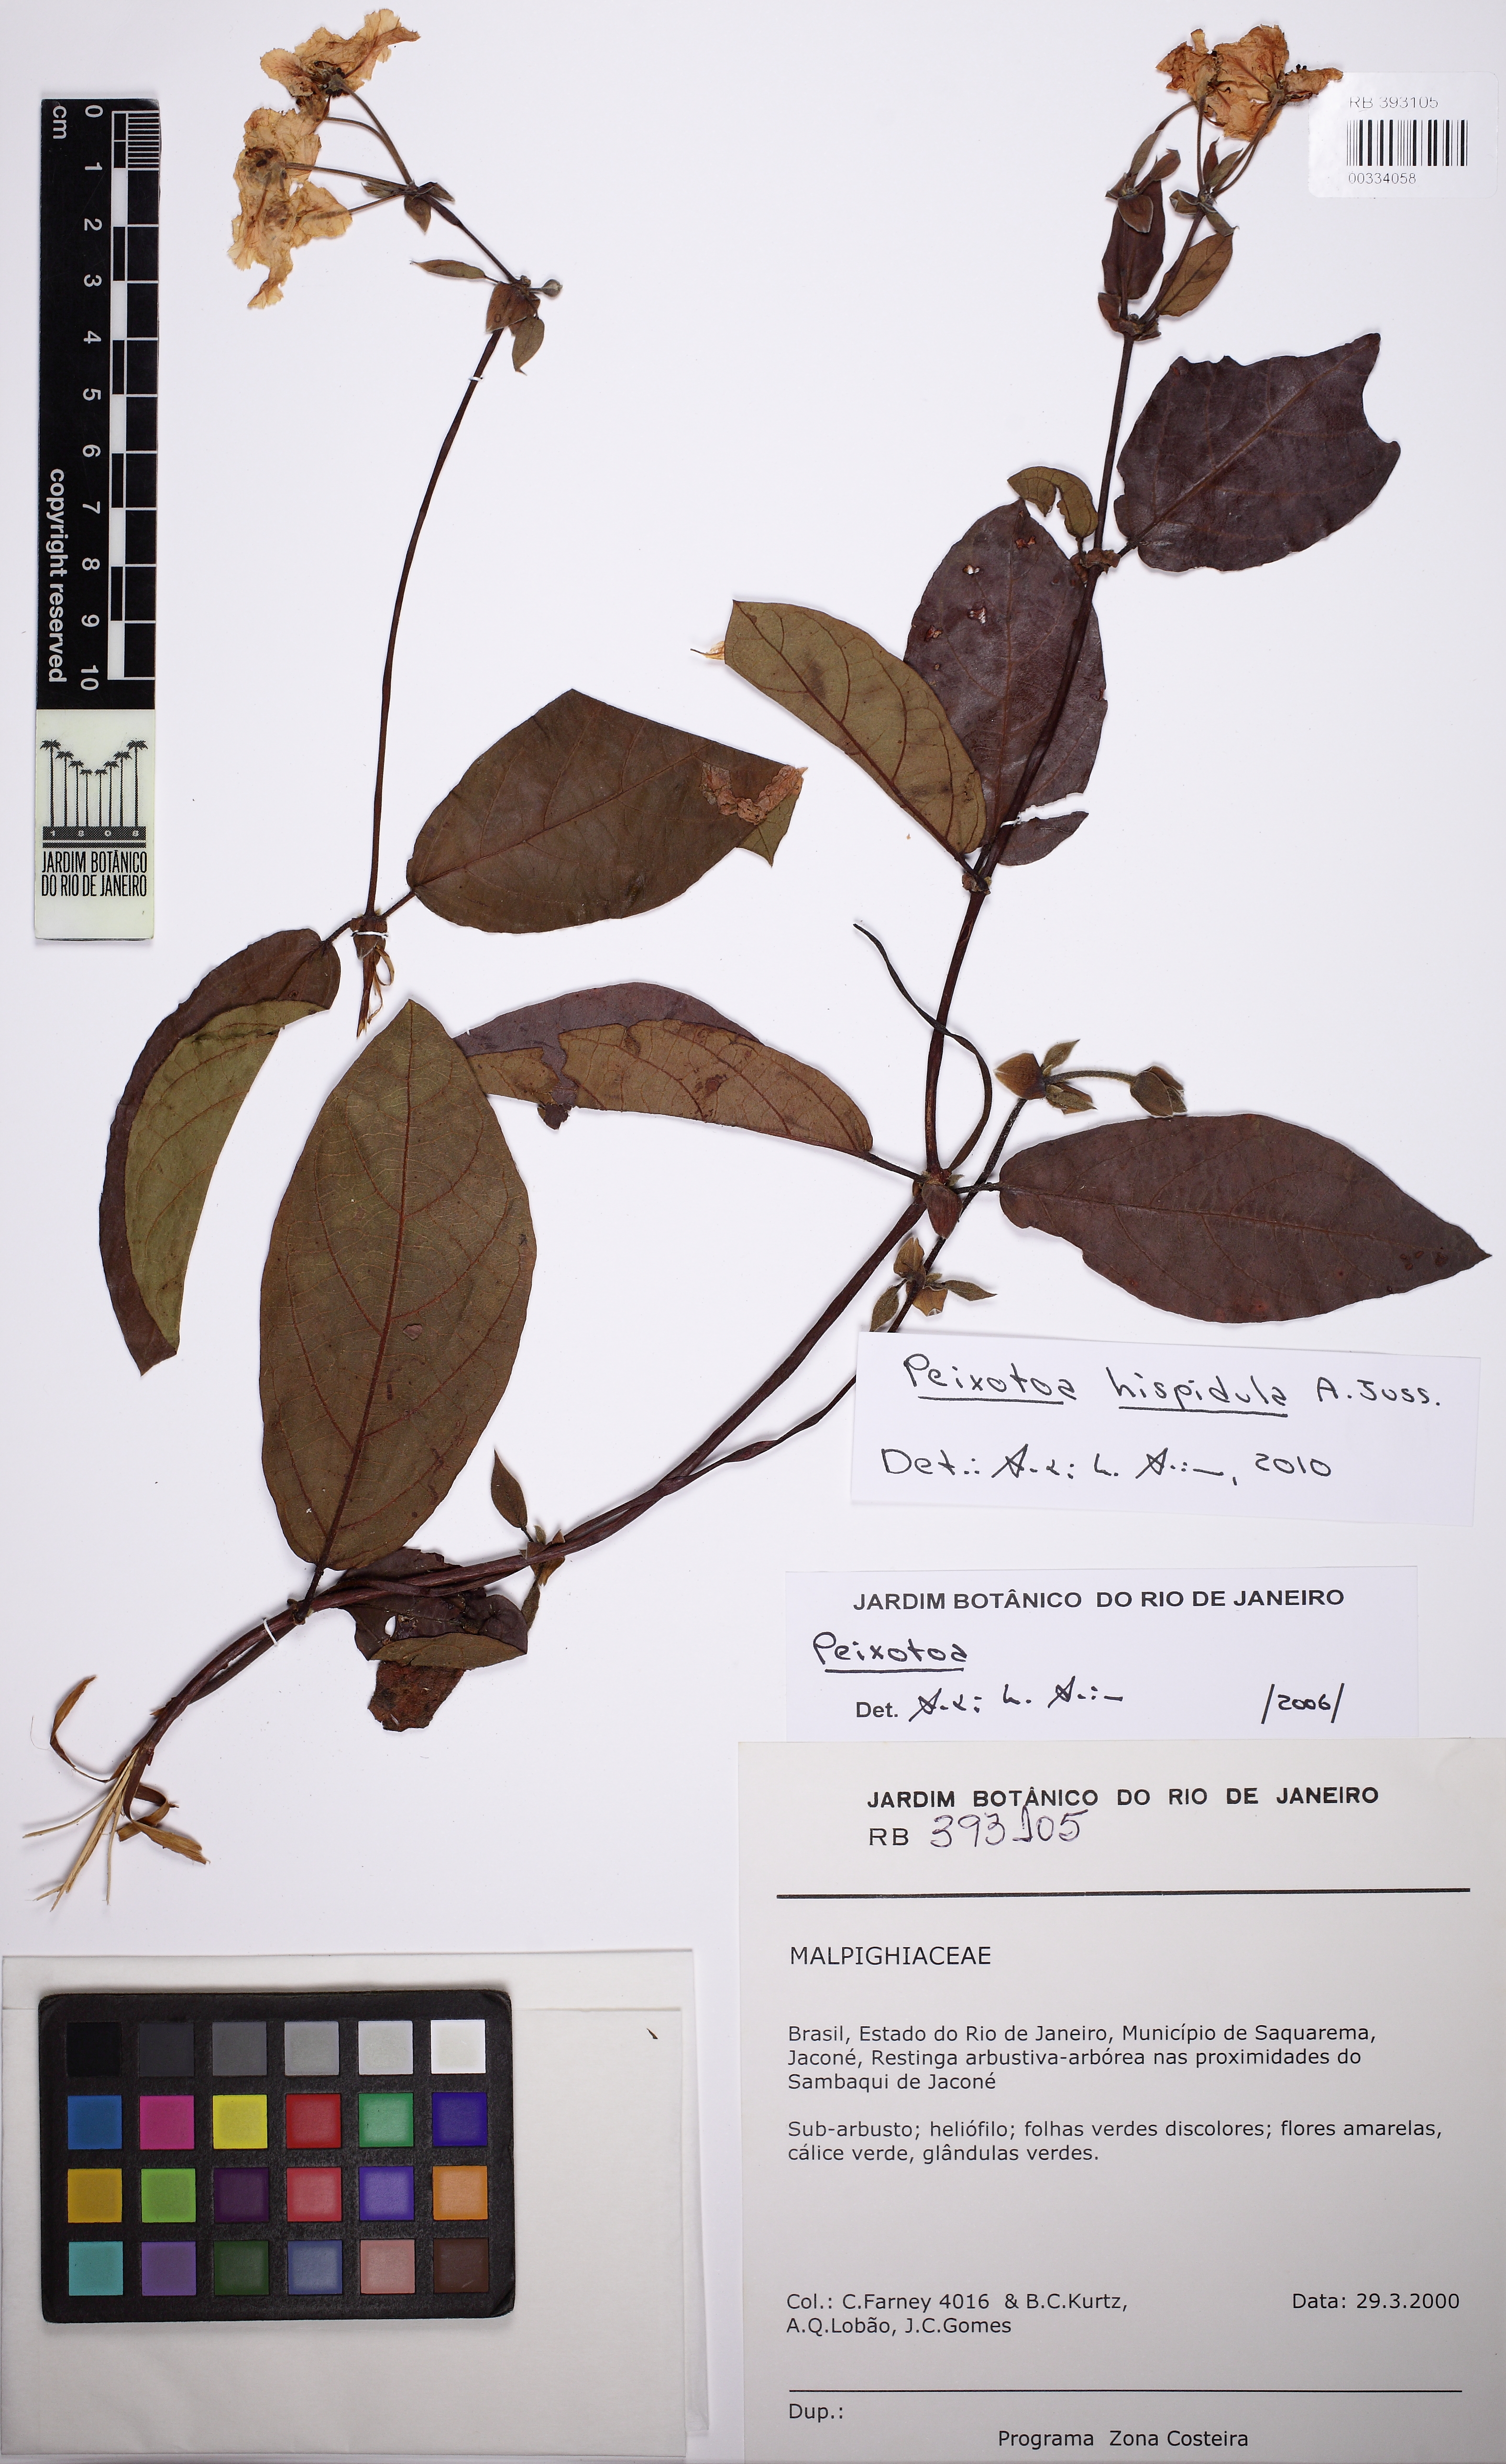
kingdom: Plantae
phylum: Tracheophyta
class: Magnoliopsida
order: Malpighiales
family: Malpighiaceae
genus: Peixotoa
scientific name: Peixotoa hispidula
